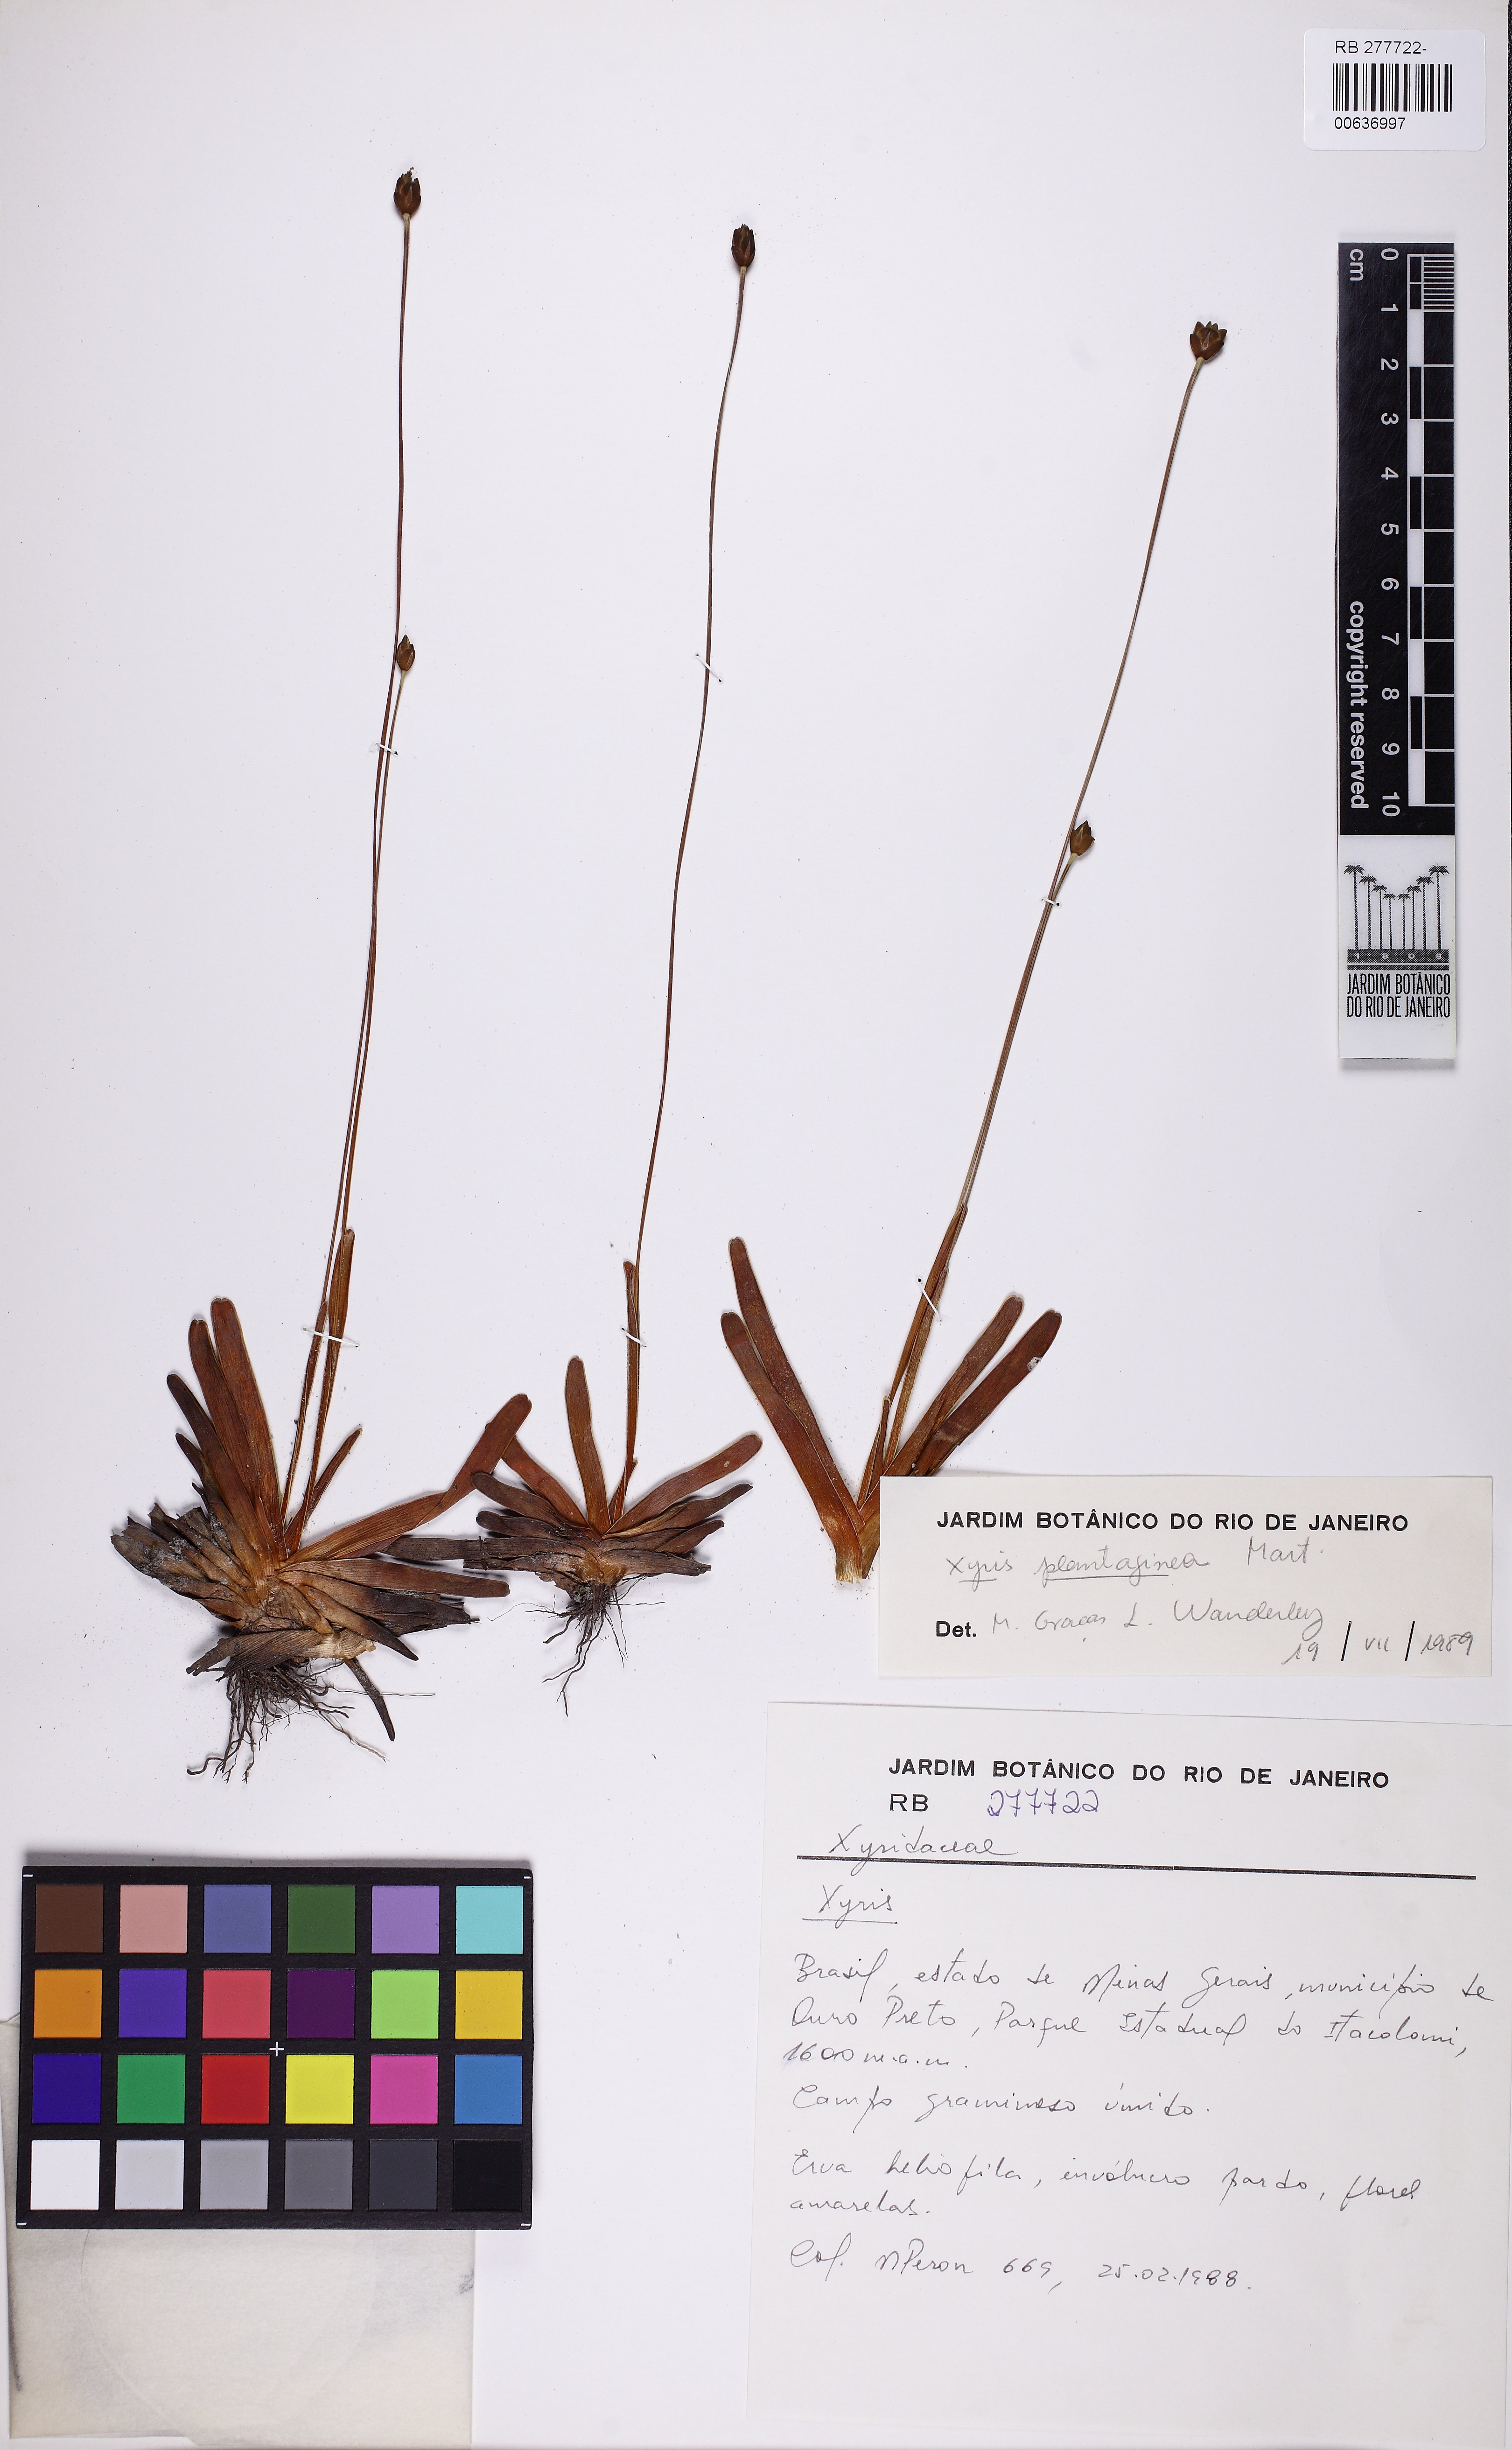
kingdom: Plantae
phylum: Tracheophyta
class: Liliopsida
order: Poales
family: Xyridaceae
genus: Xyris
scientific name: Xyris plantaginea
